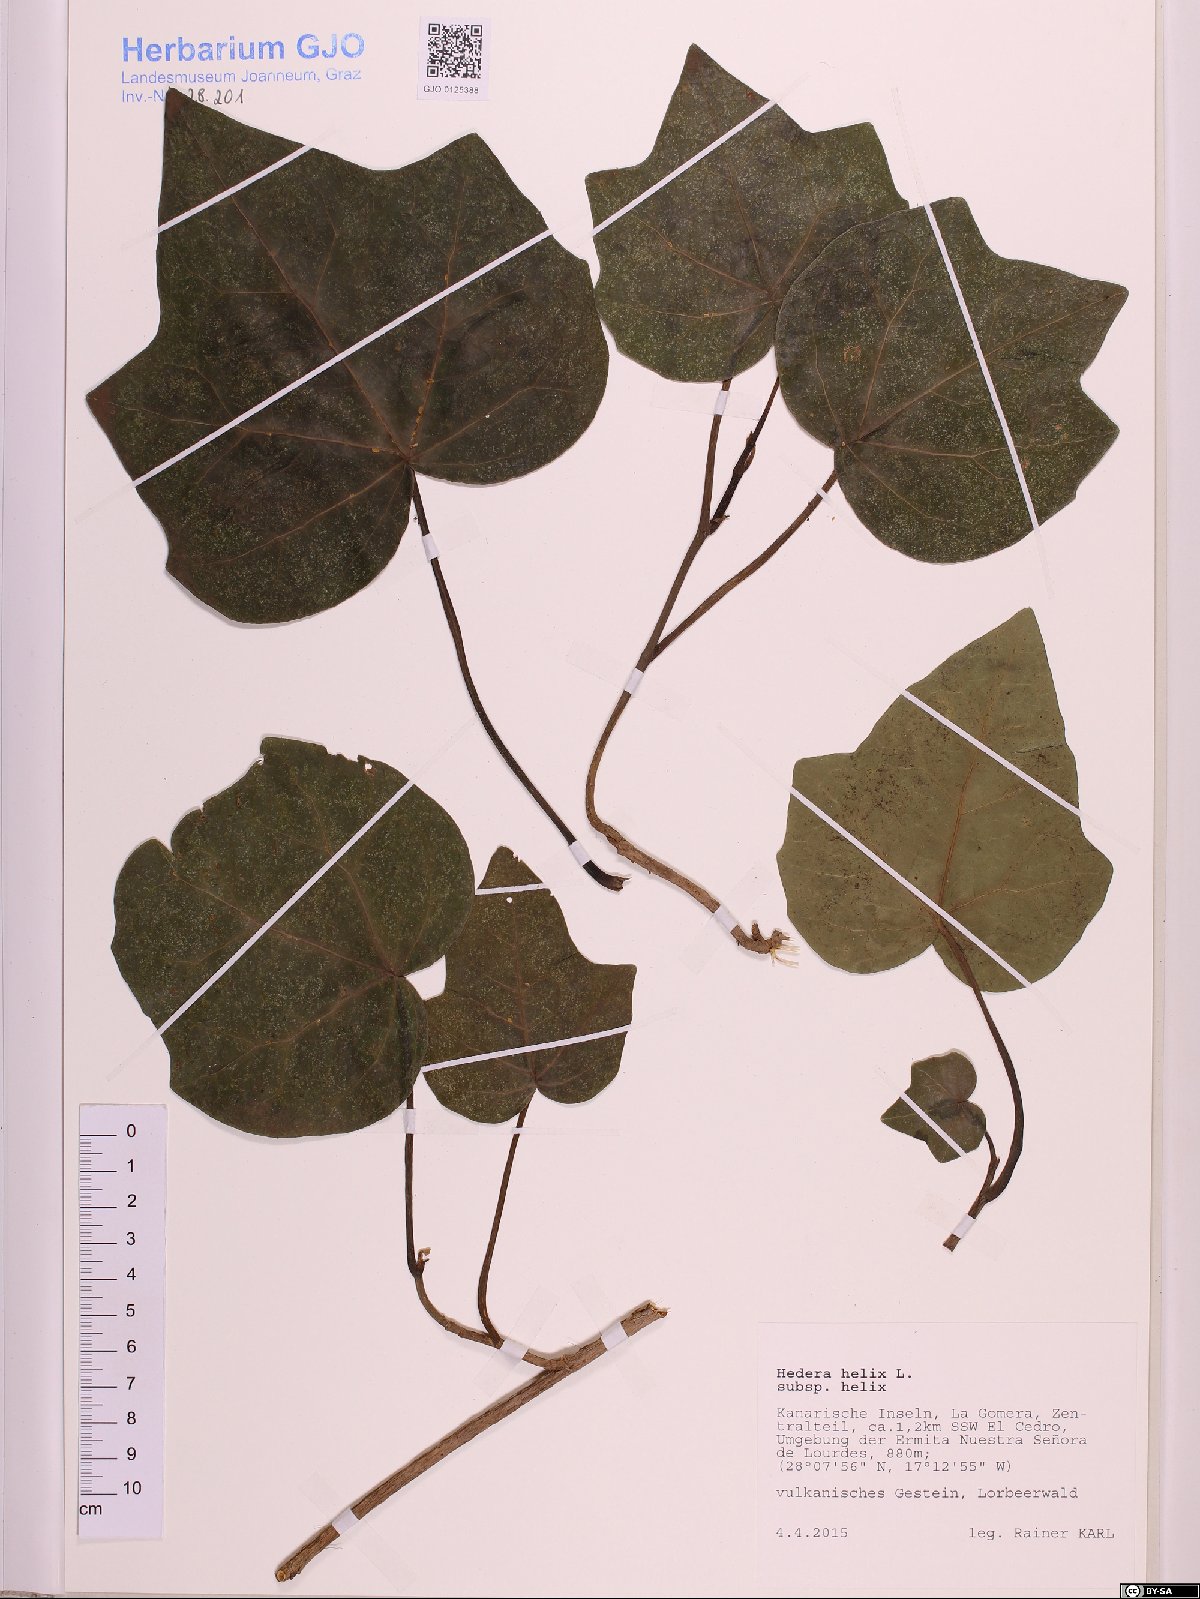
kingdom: Plantae
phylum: Tracheophyta
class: Magnoliopsida
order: Apiales
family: Araliaceae
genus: Hedera
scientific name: Hedera helix
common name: Ivy
